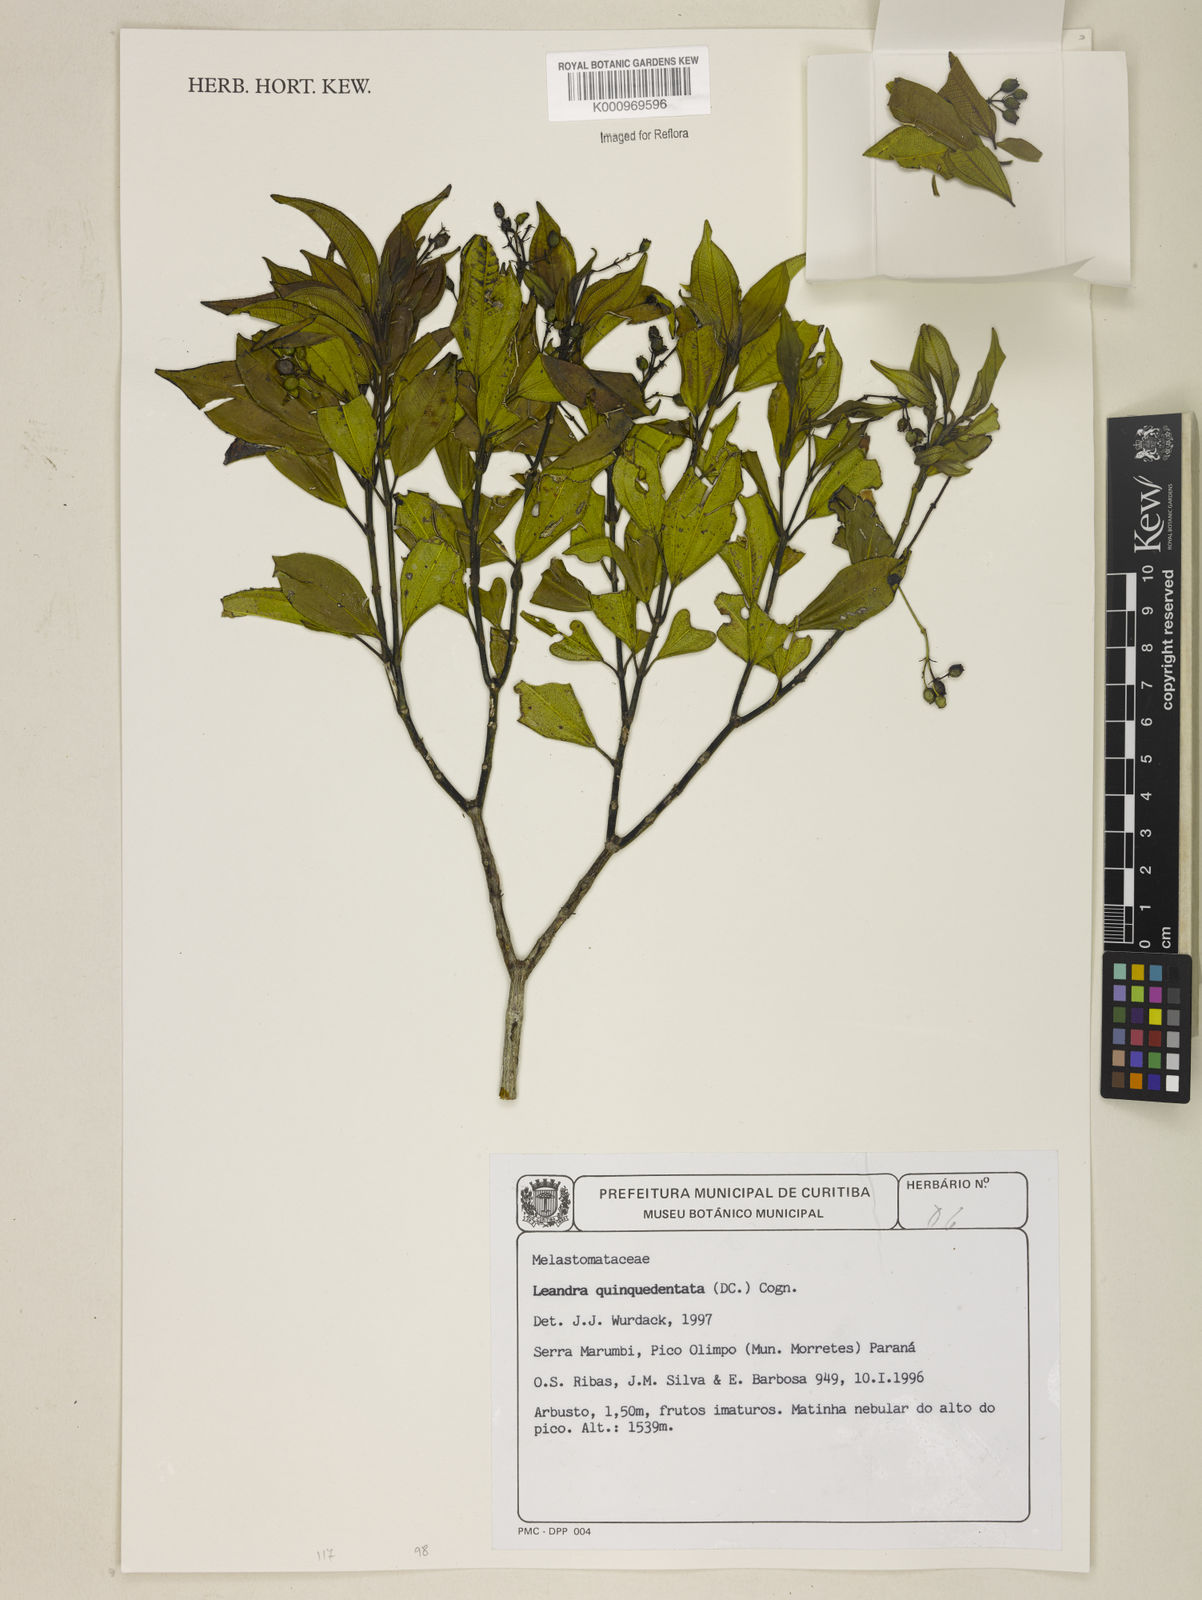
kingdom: Plantae
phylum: Tracheophyta
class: Magnoliopsida
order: Myrtales
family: Melastomataceae
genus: Miconia
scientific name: Miconia quinquedentata
